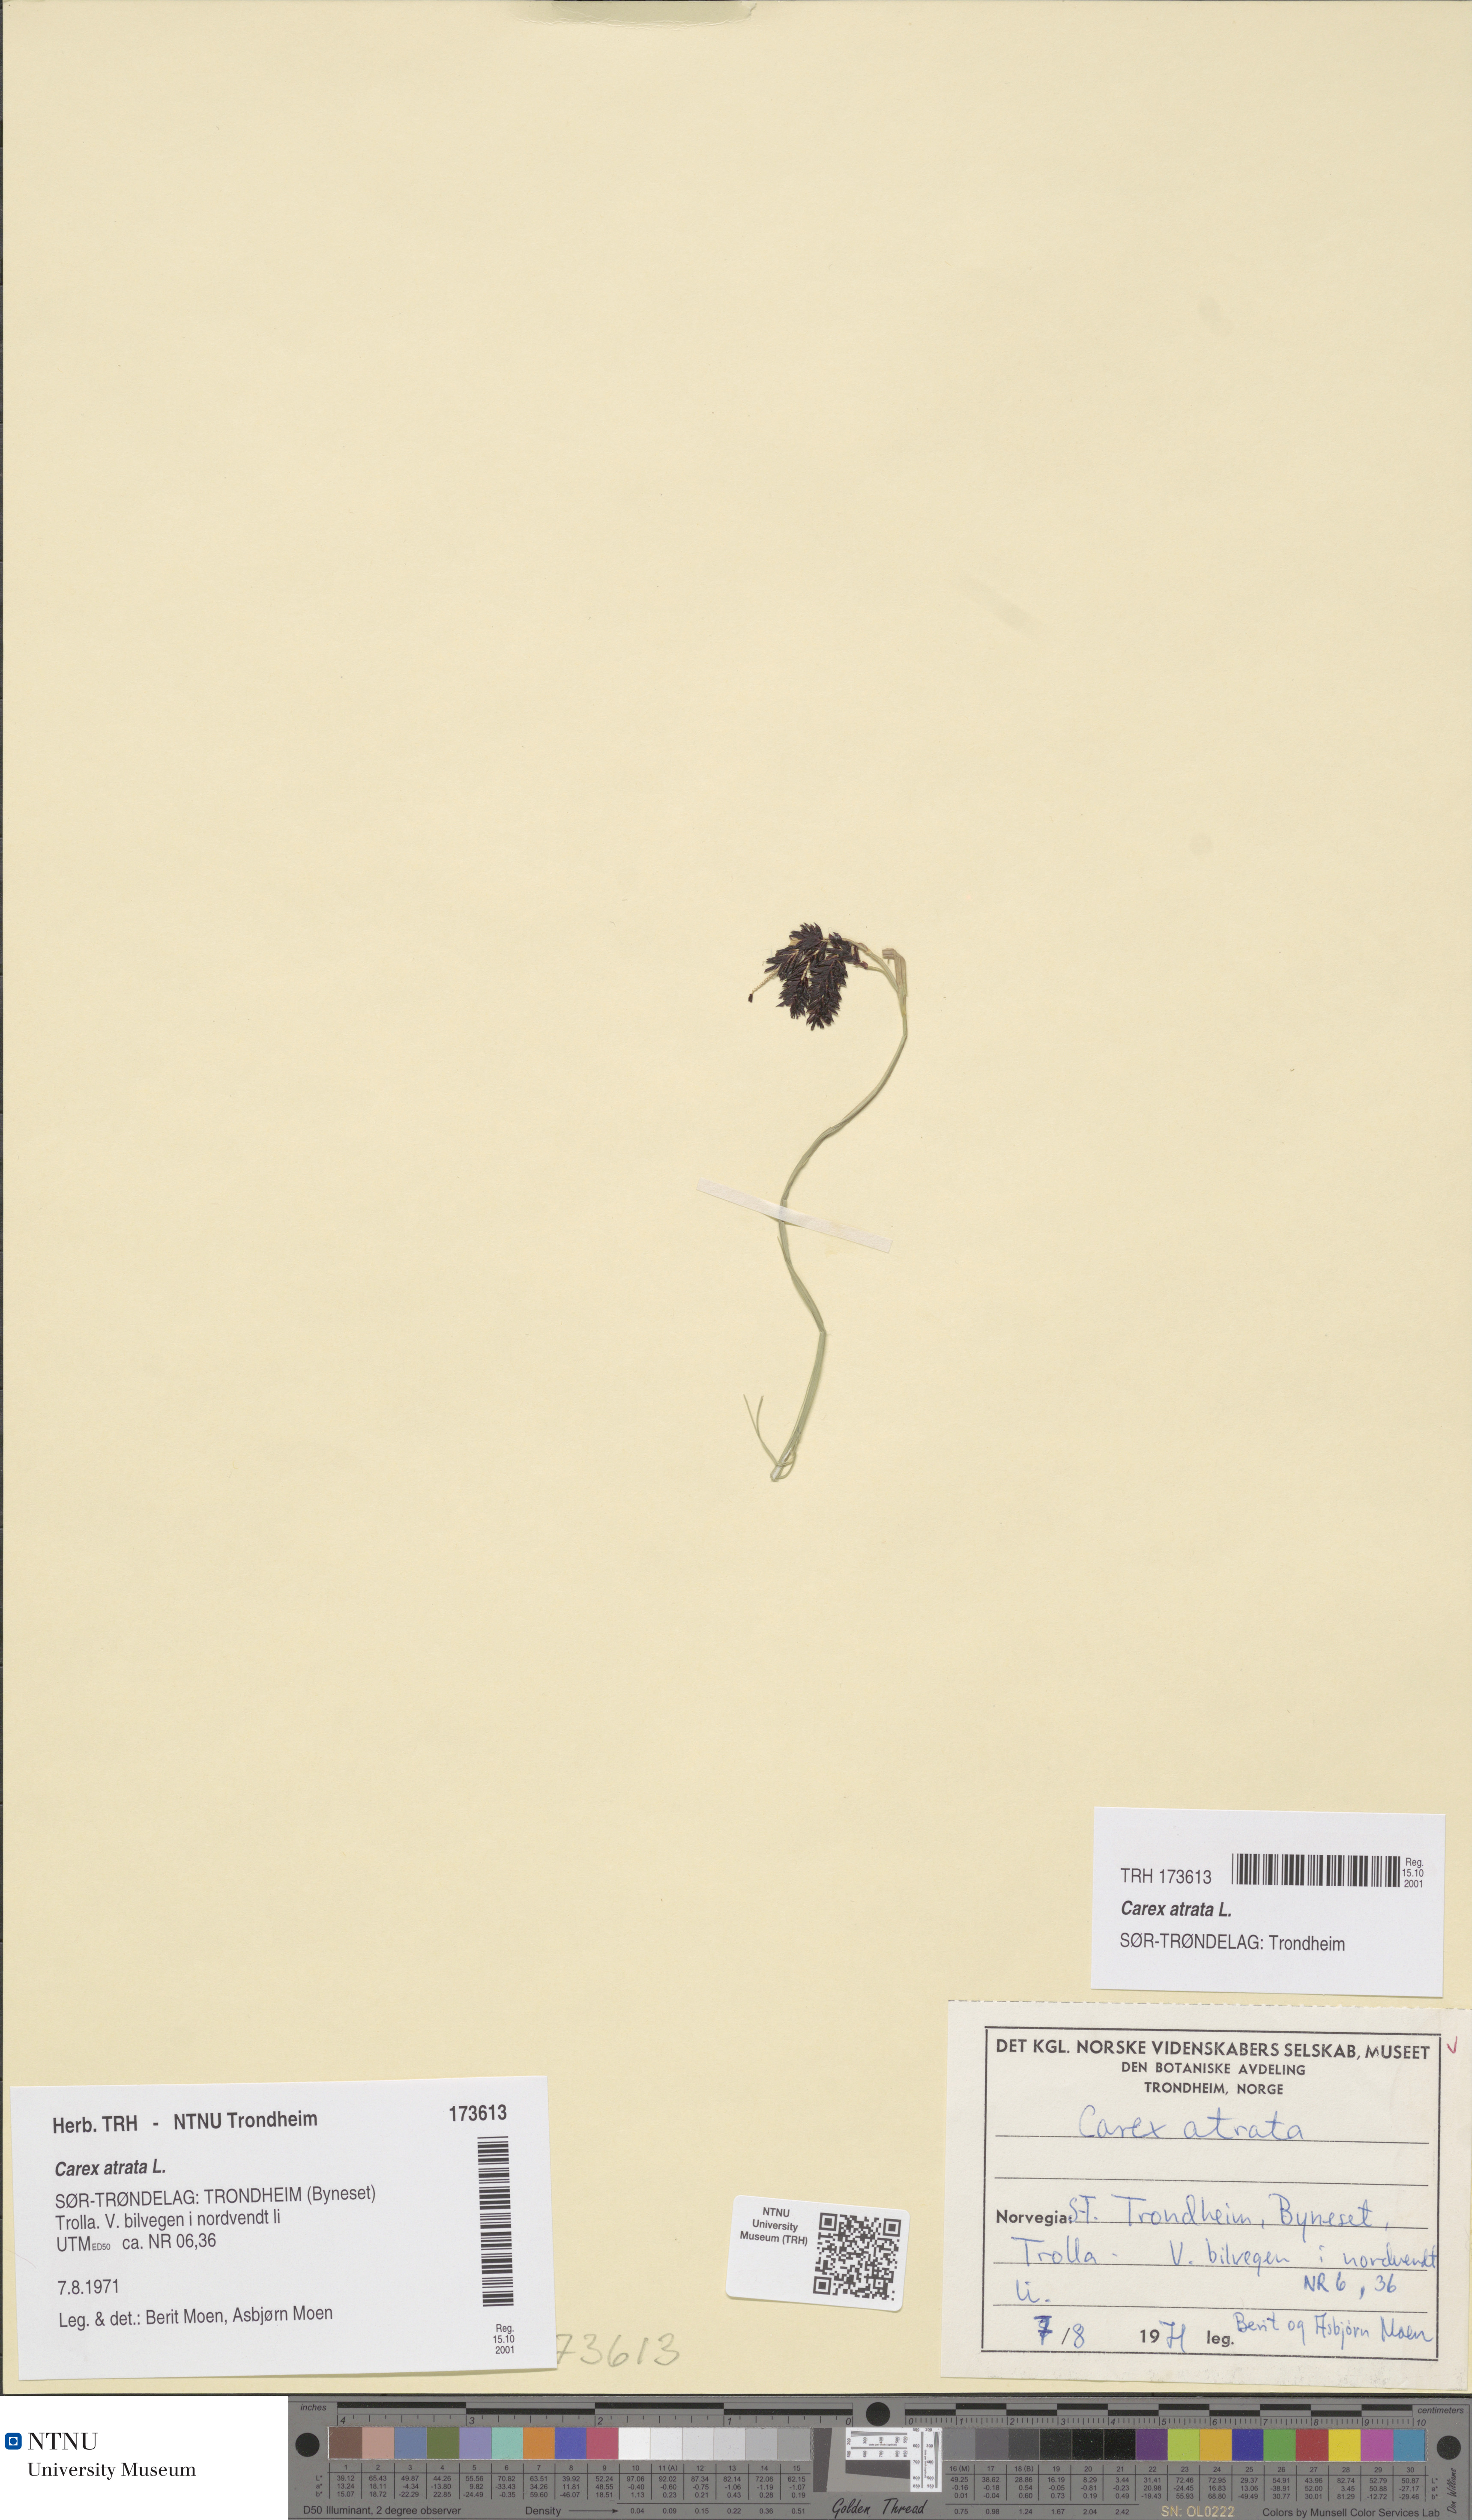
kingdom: Plantae
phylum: Tracheophyta
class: Liliopsida
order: Poales
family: Cyperaceae
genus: Carex
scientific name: Carex atrata
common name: Black alpine sedge
